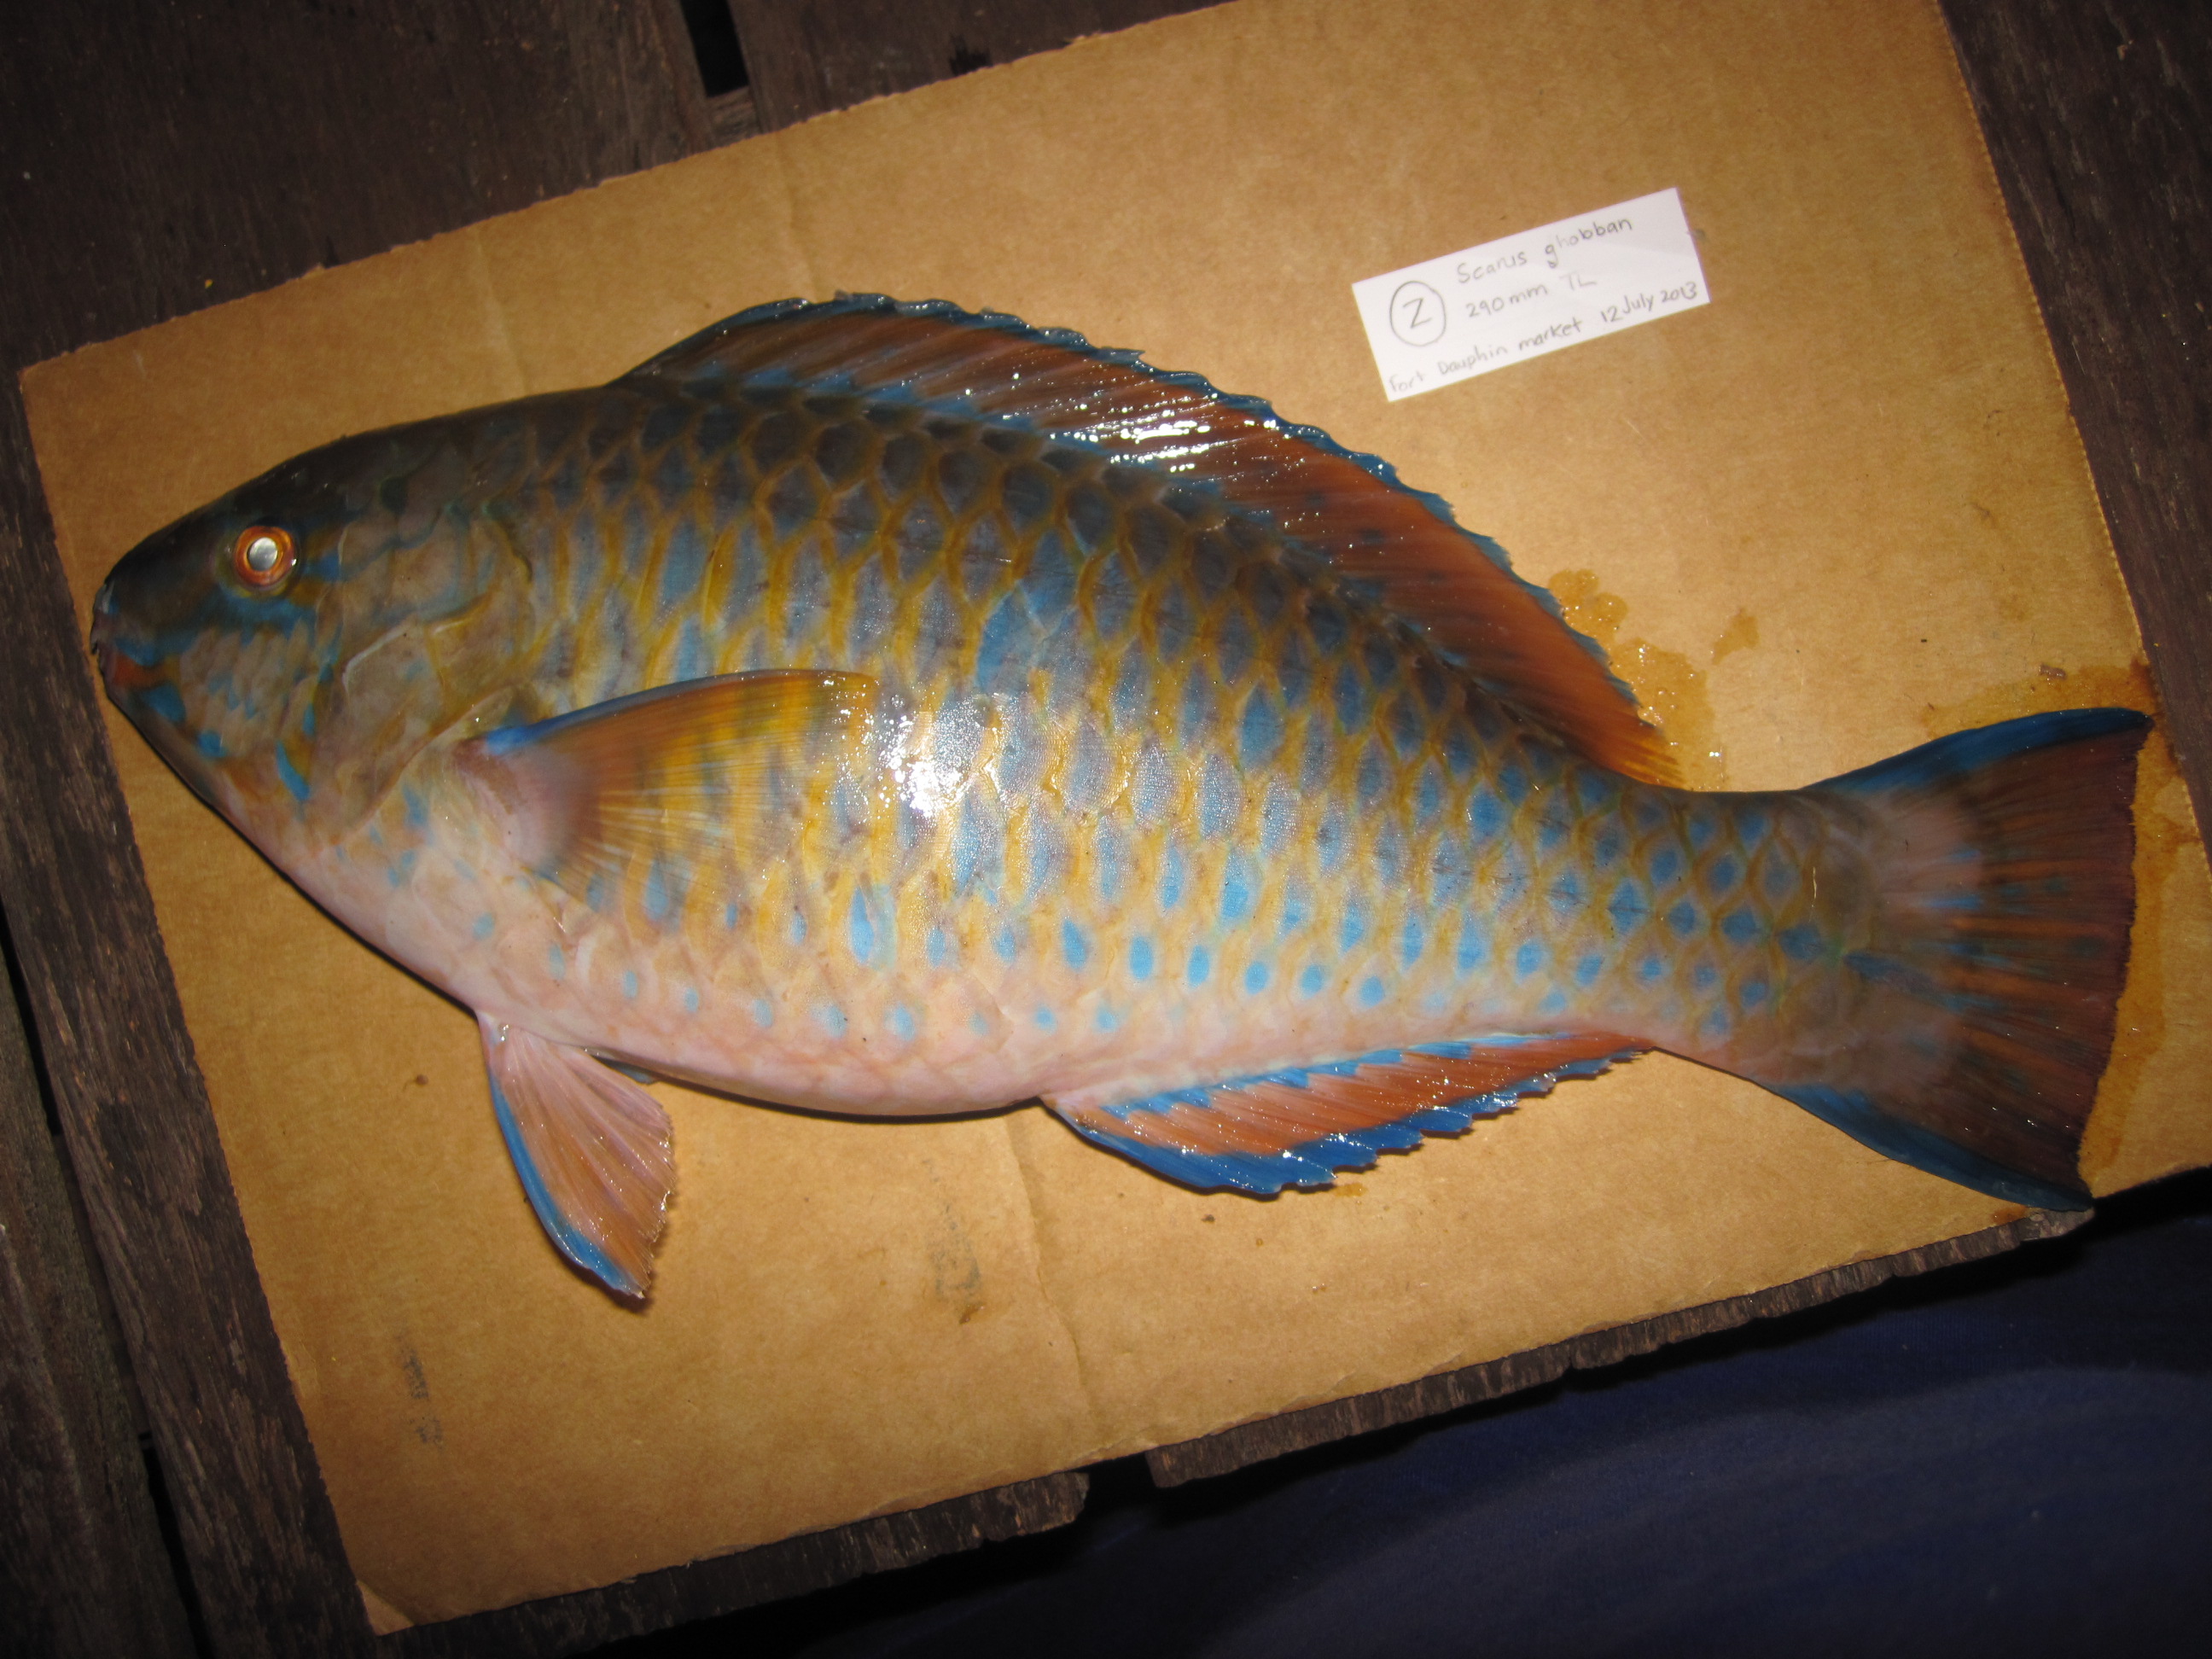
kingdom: Animalia
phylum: Chordata
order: Perciformes
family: Scaridae
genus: Scarus
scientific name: Scarus ghobban
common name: Blue-barred parrotfish
